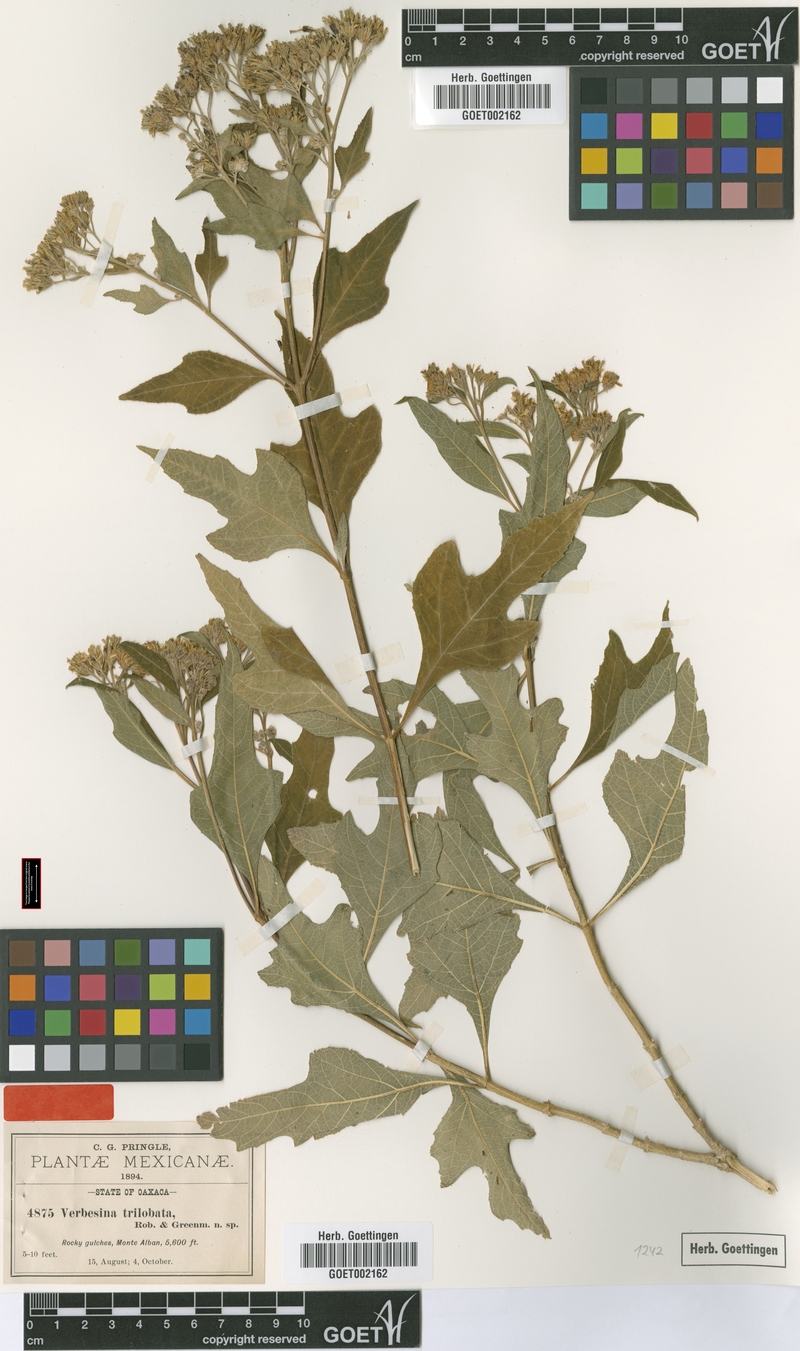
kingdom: Plantae
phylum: Tracheophyta
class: Magnoliopsida
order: Asterales
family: Asteraceae
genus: Verbesina
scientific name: Verbesina trilobata
